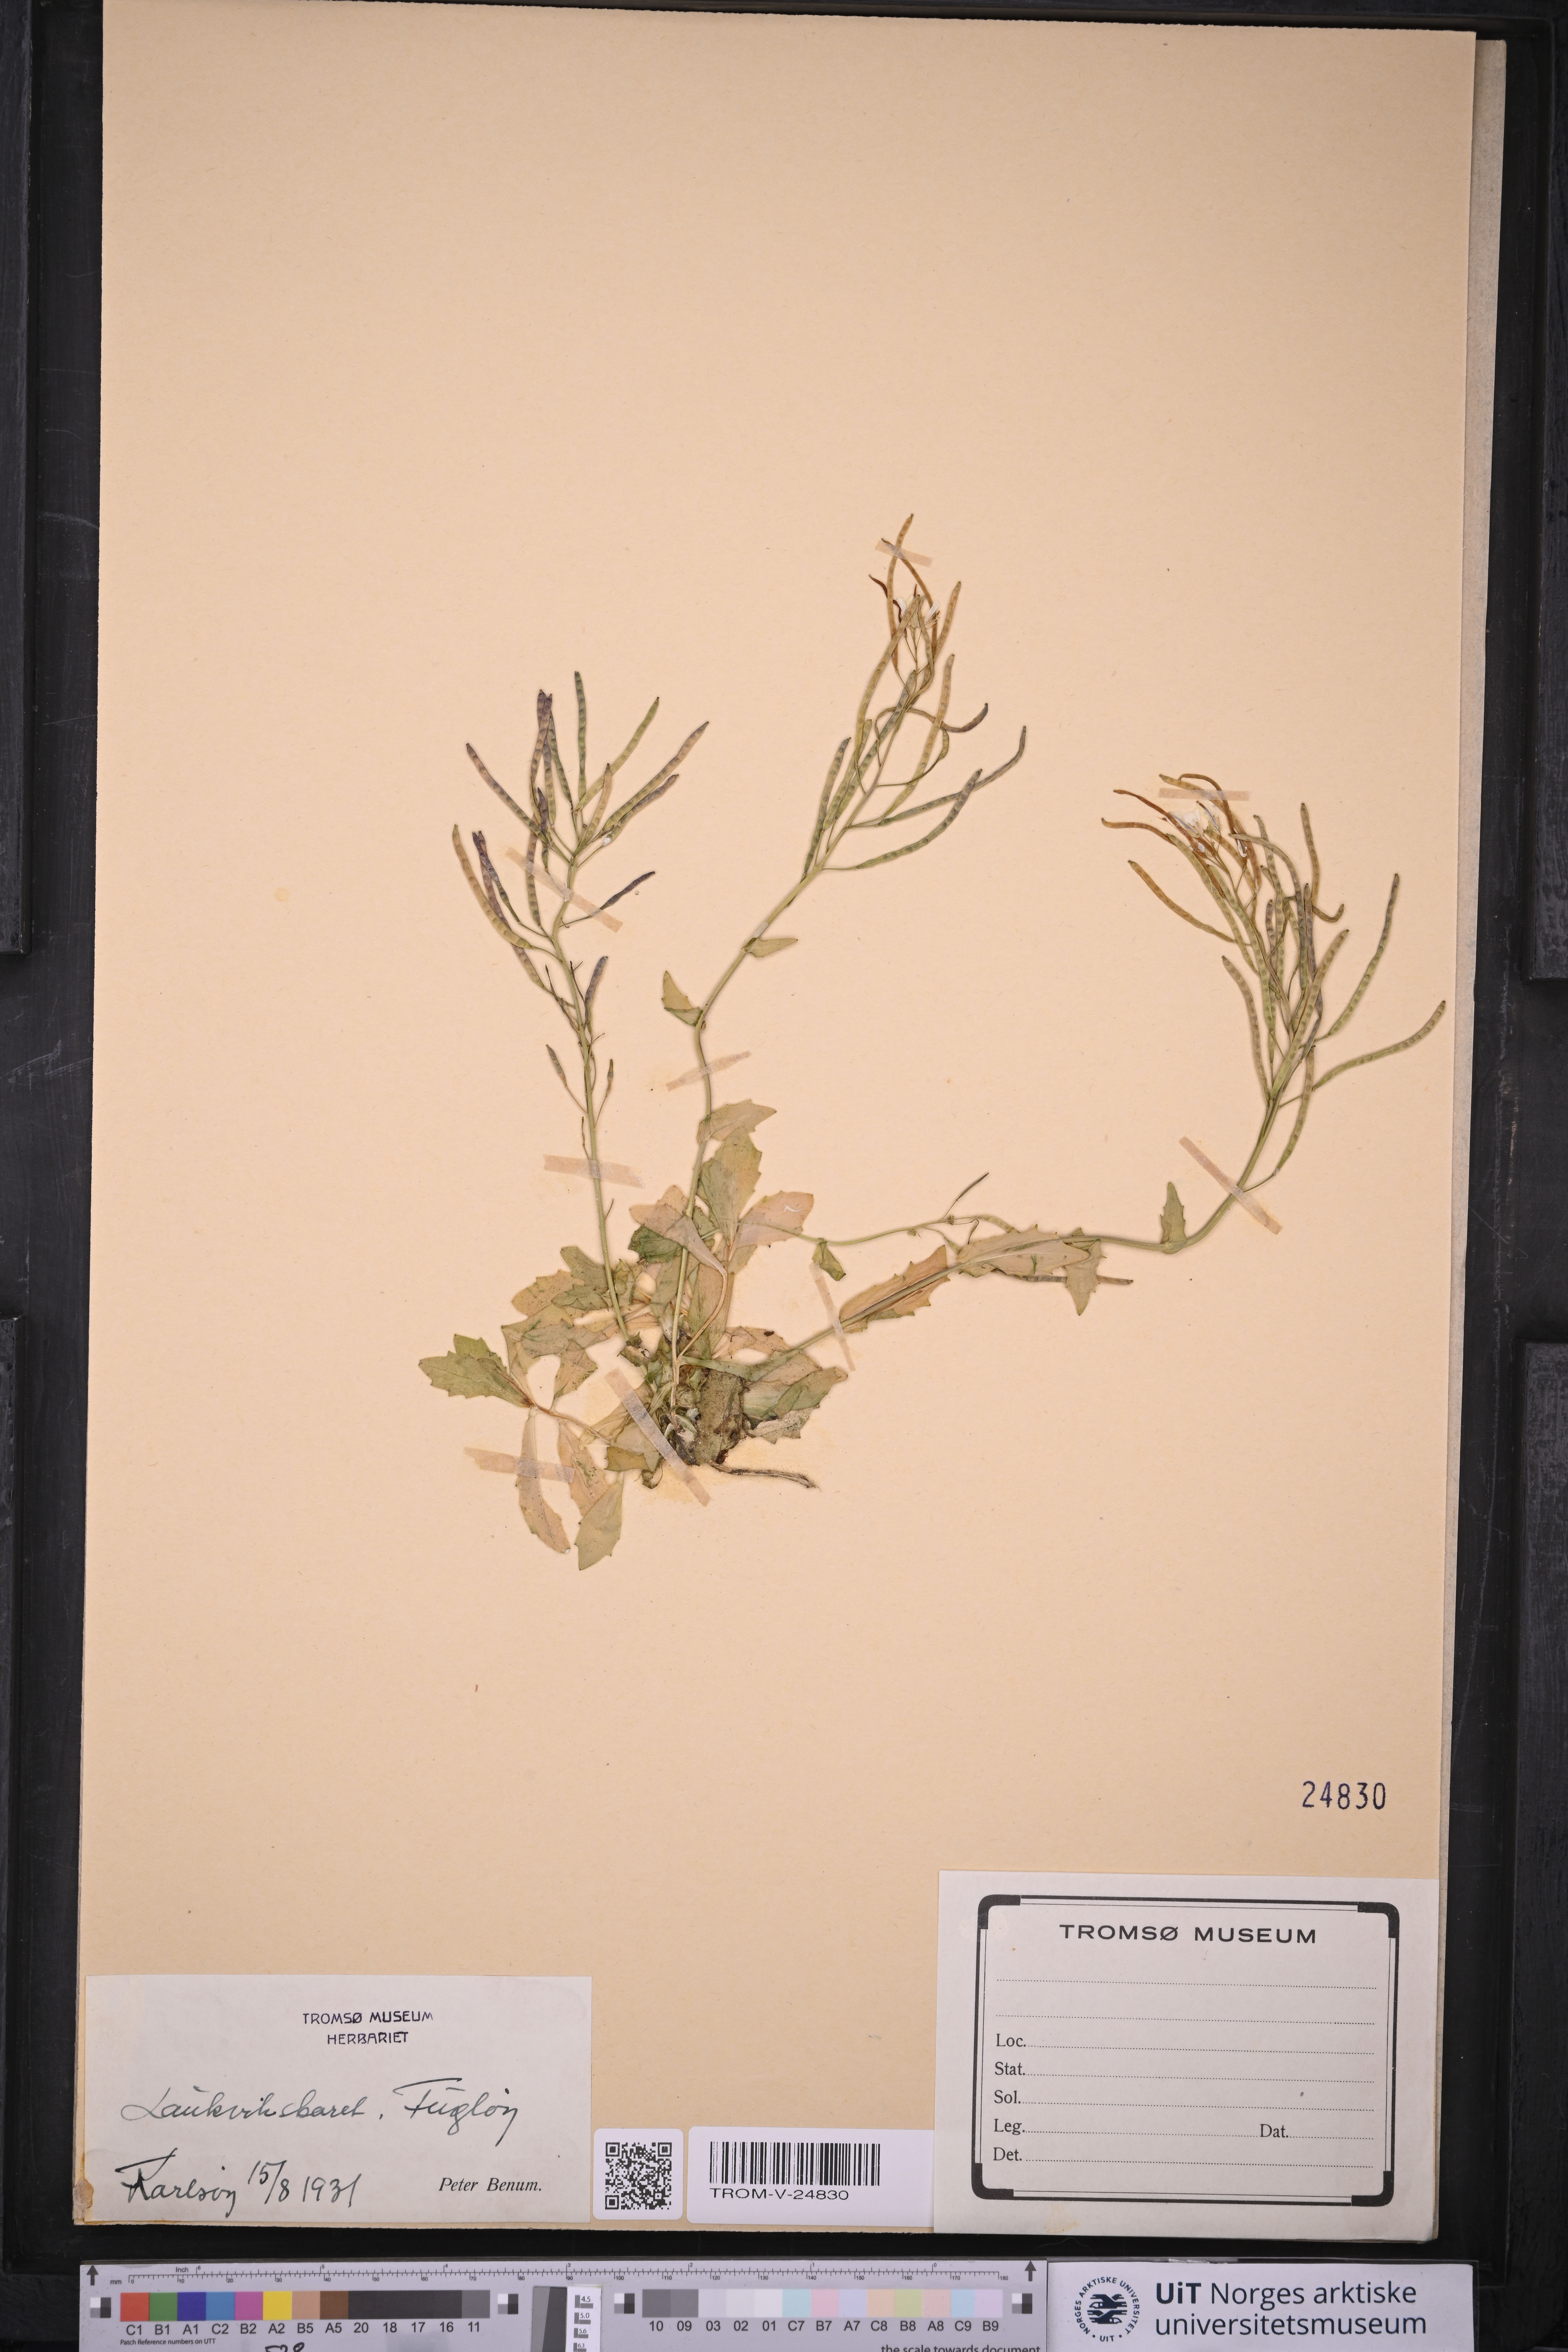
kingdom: Plantae
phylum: Tracheophyta
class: Magnoliopsida
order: Brassicales
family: Brassicaceae
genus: Arabis
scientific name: Arabis alpina
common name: Alpine rock-cress
